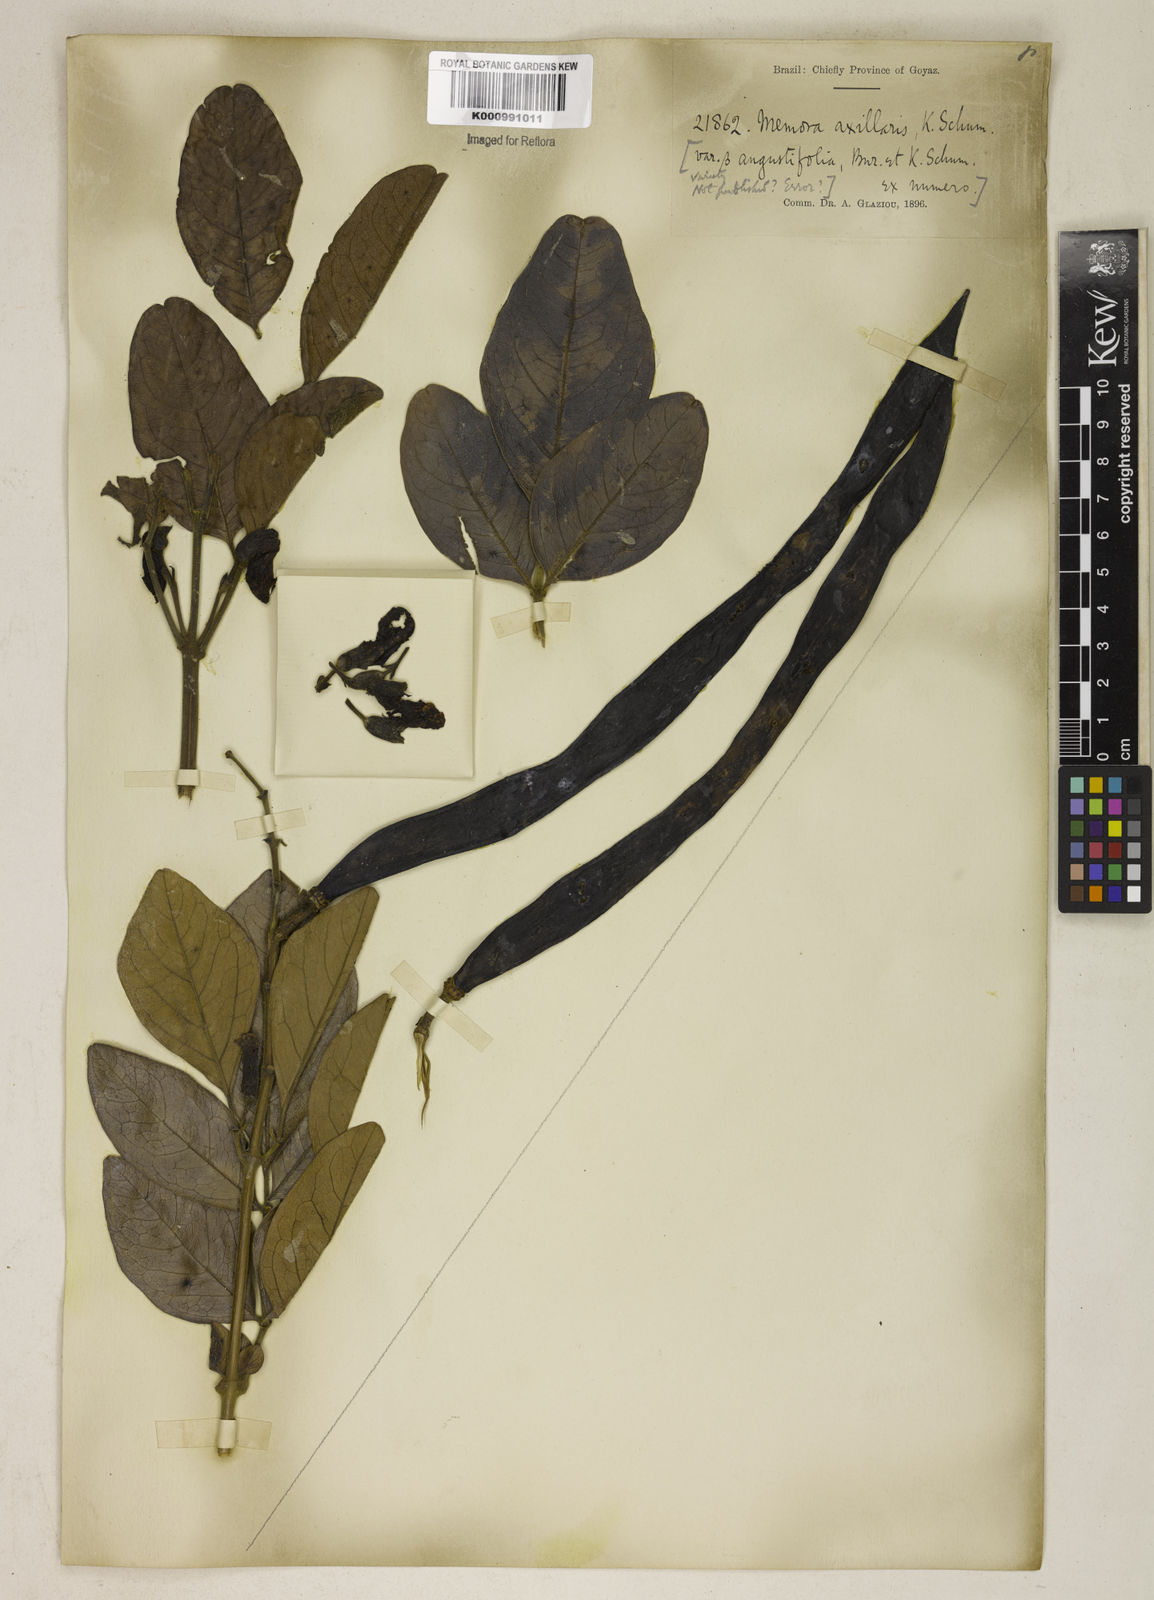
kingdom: Plantae
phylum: Tracheophyta
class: Magnoliopsida
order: Lamiales
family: Bignoniaceae
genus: Adenocalymma
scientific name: Adenocalymma axillare
